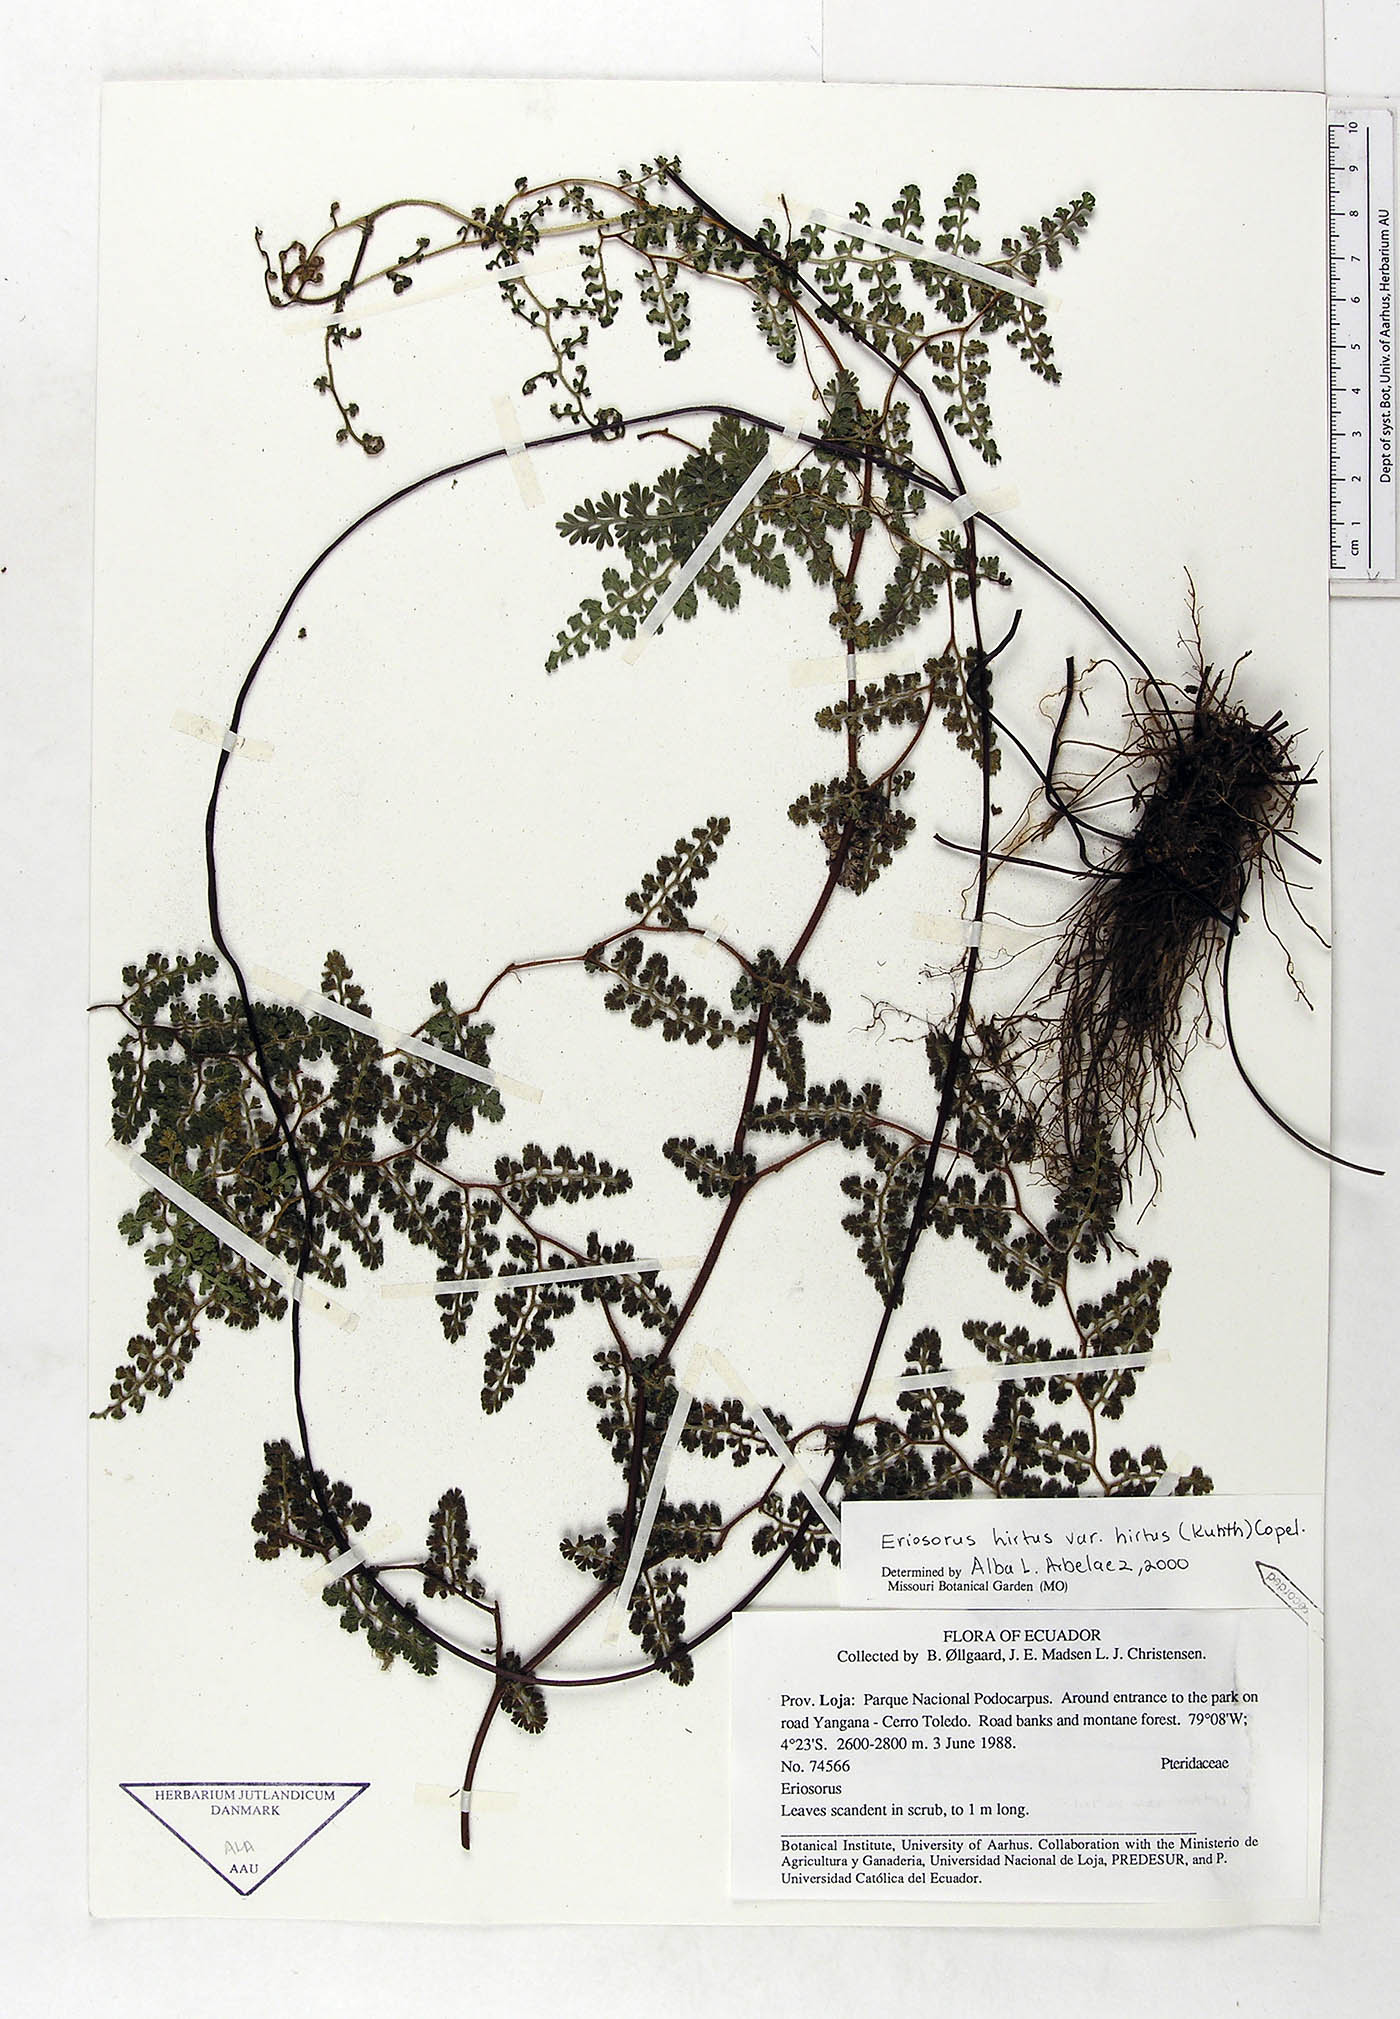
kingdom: Plantae
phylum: Tracheophyta
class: Polypodiopsida
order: Polypodiales
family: Pteridaceae
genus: Jamesonia
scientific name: Jamesonia hirta
